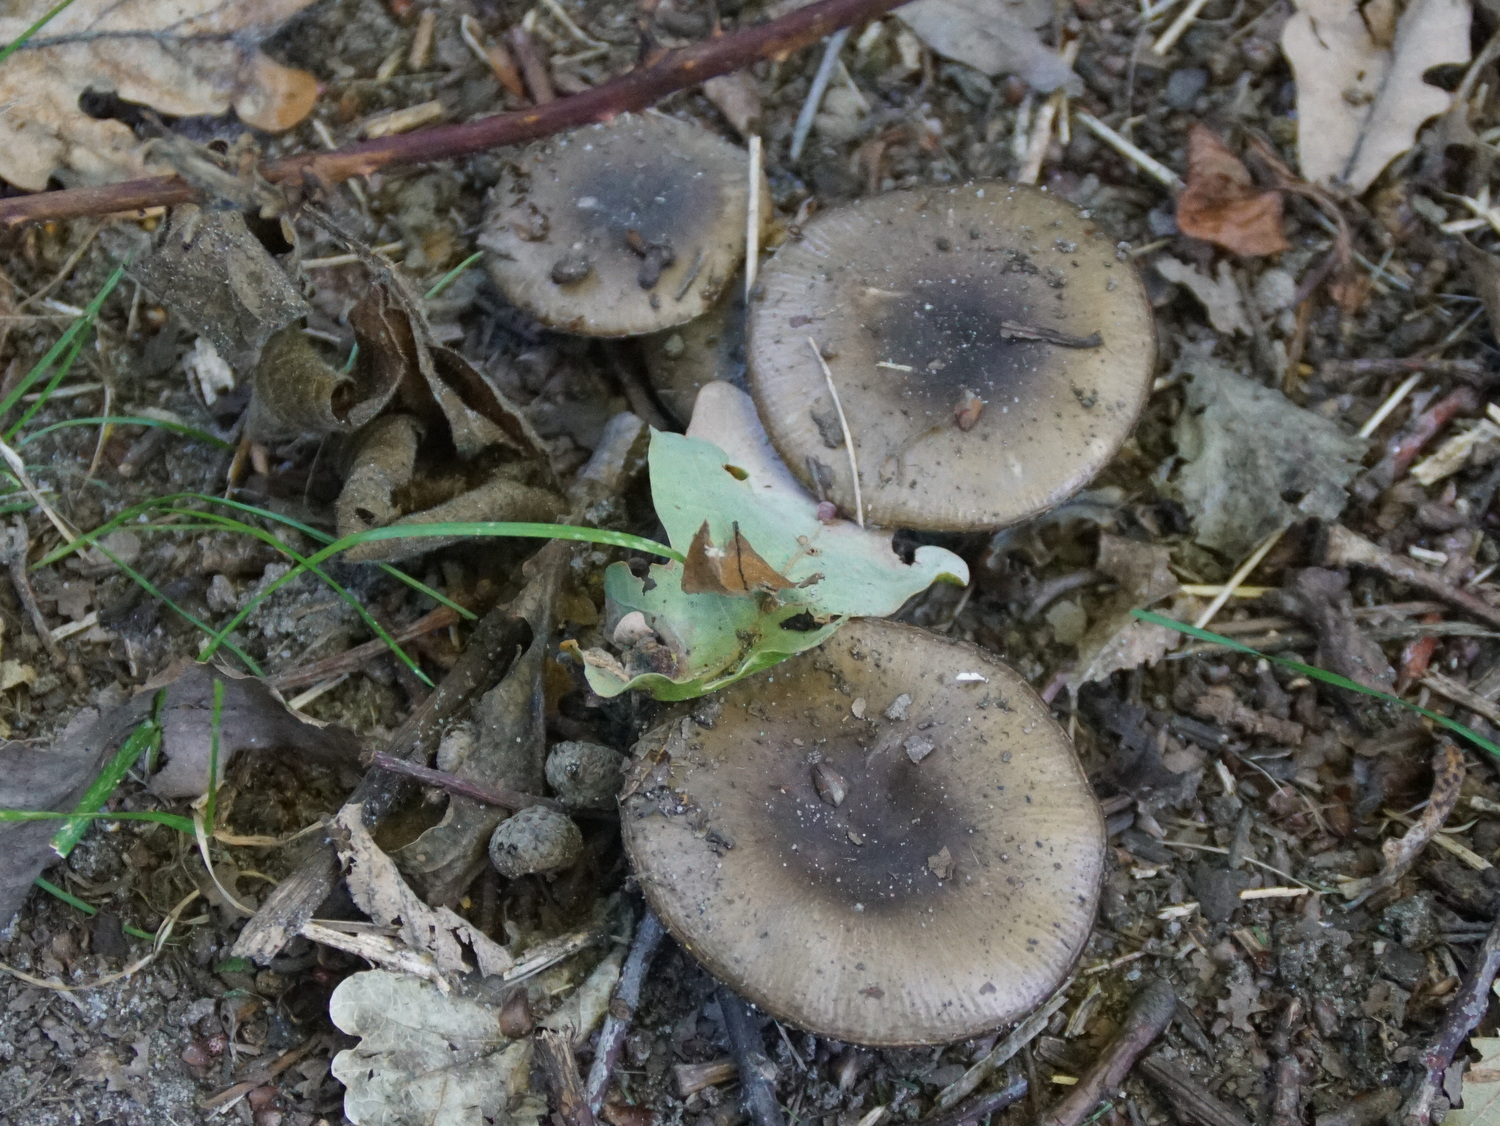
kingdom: Fungi
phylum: Basidiomycota
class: Agaricomycetes
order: Russulales
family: Russulaceae
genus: Russula
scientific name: Russula amoenolens
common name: skarp kam-skørhat
